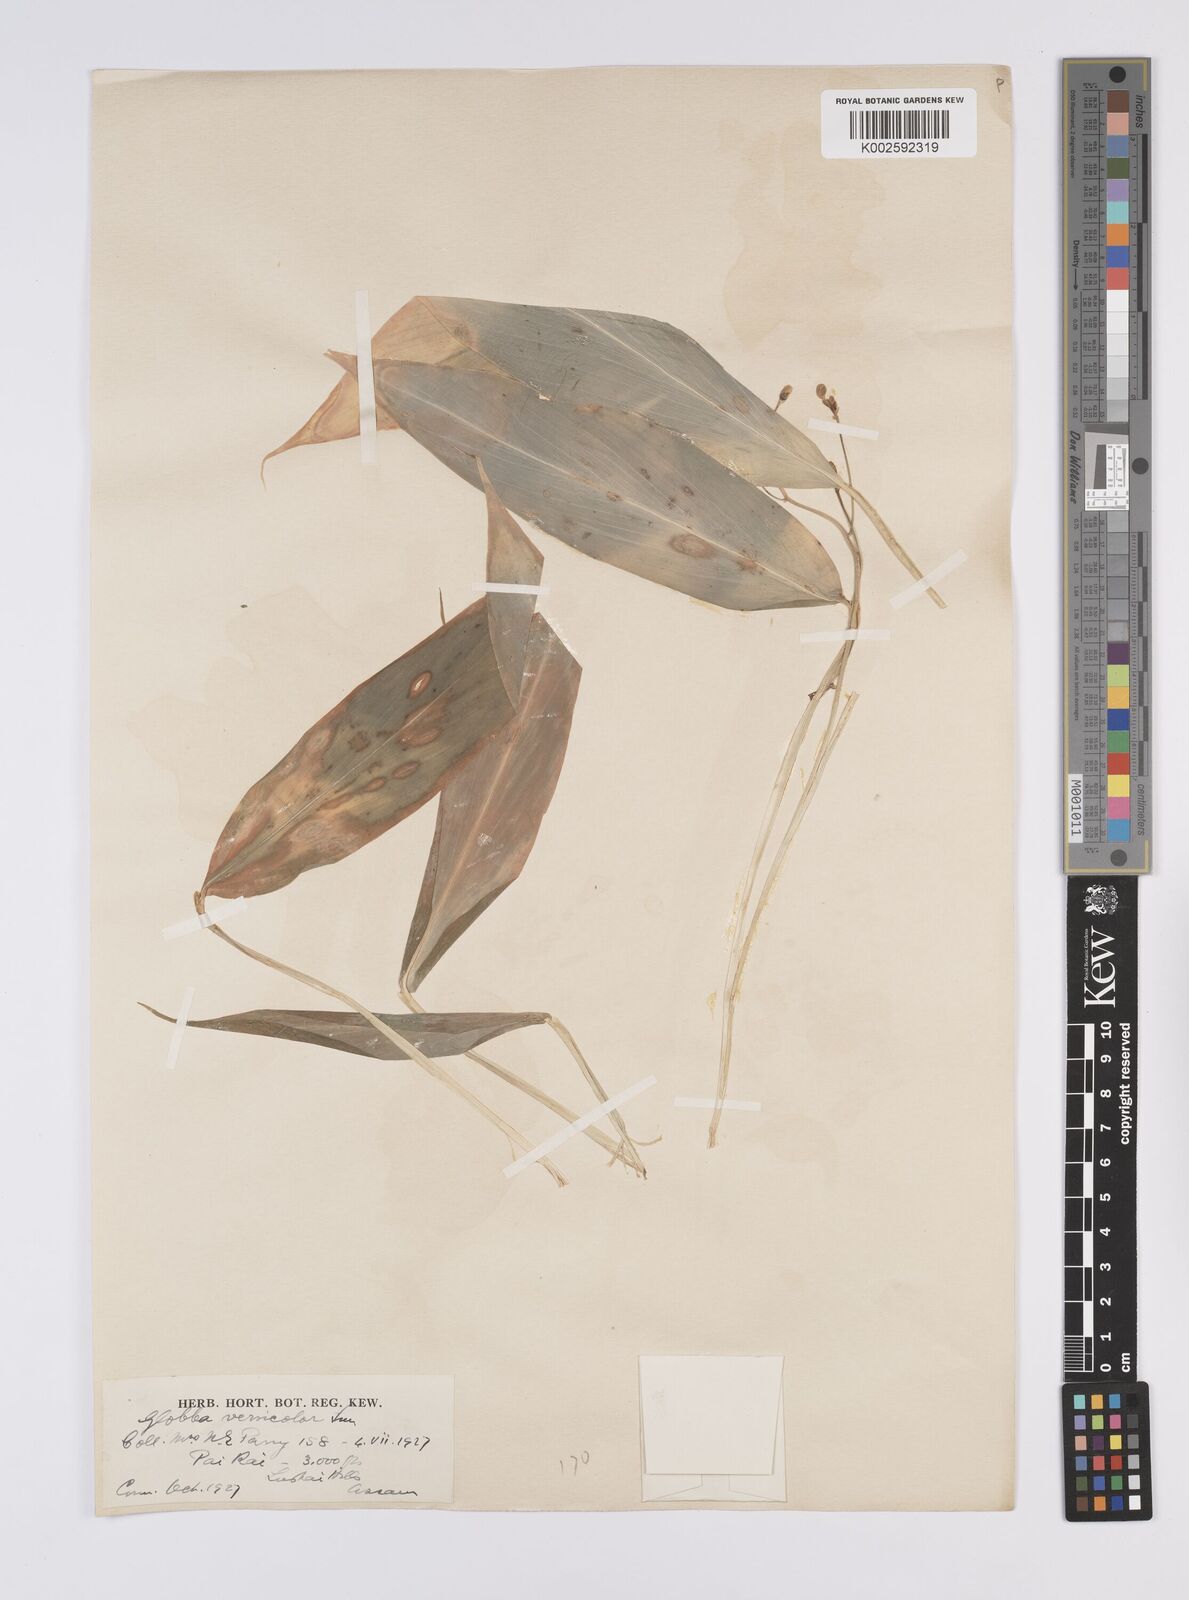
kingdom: Plantae
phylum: Tracheophyta
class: Liliopsida
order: Zingiberales
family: Zingiberaceae
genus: Globba
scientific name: Globba pendula
